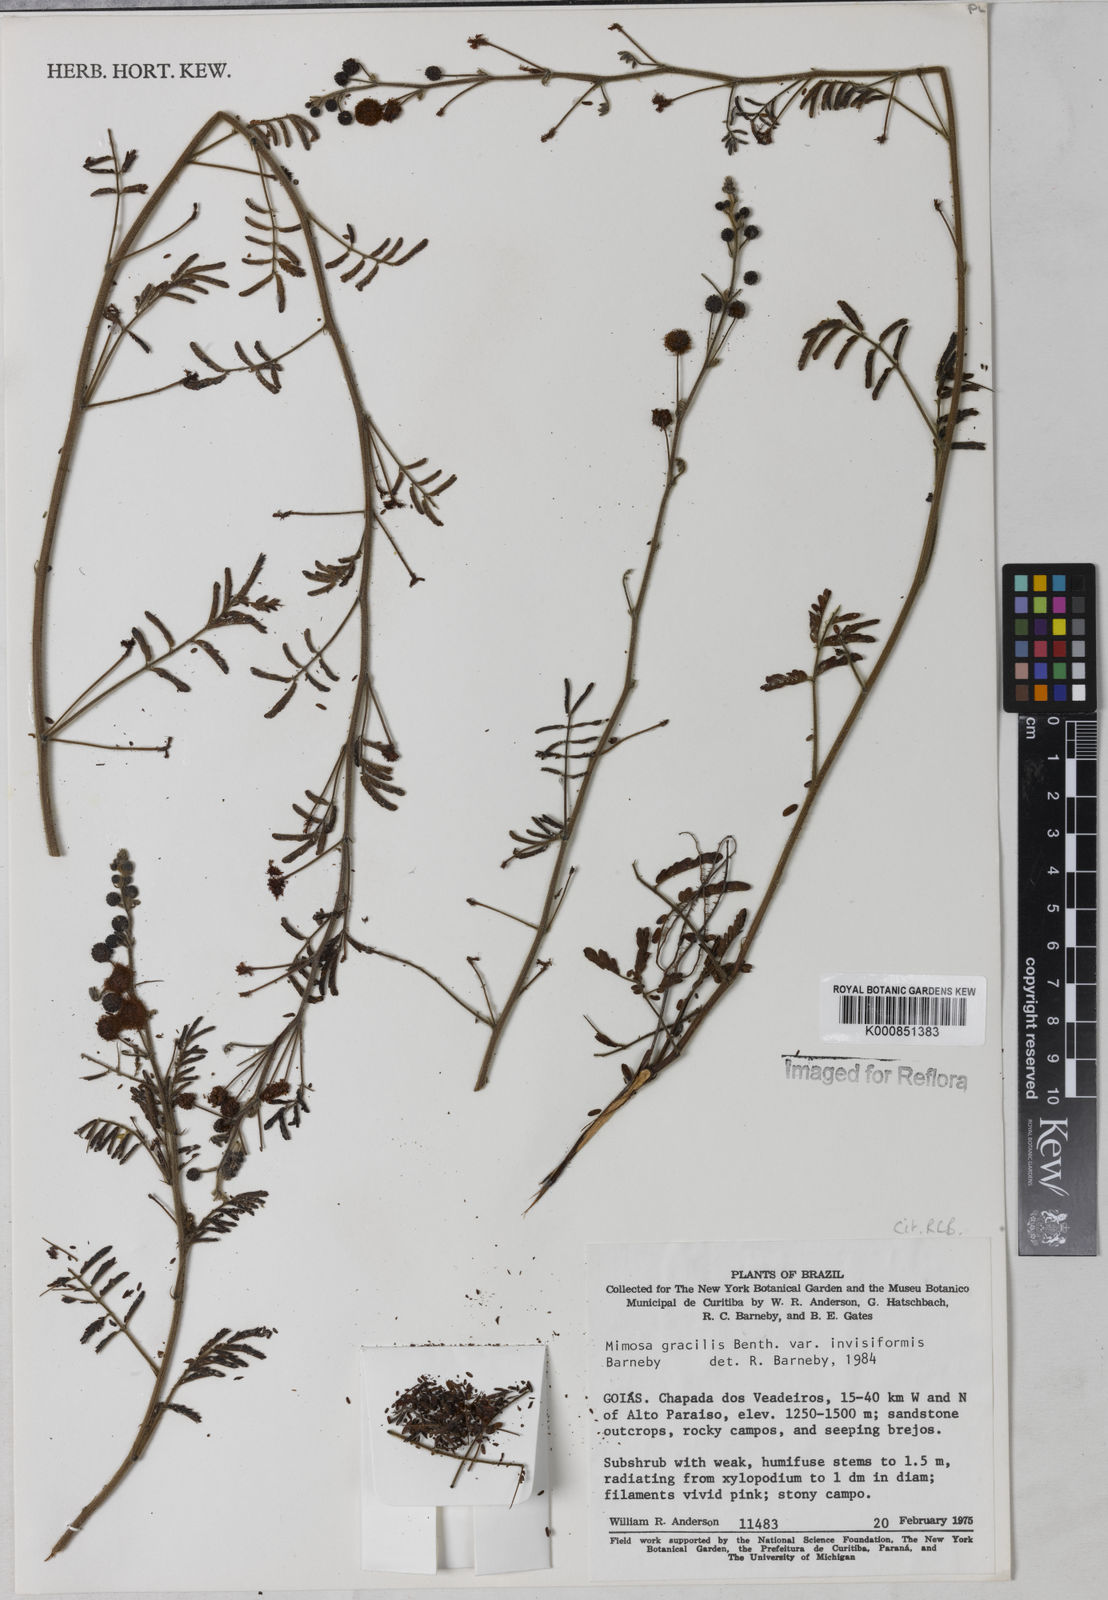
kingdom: Plantae
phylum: Tracheophyta
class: Magnoliopsida
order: Fabales
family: Fabaceae
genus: Mimosa
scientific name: Mimosa gracilis
